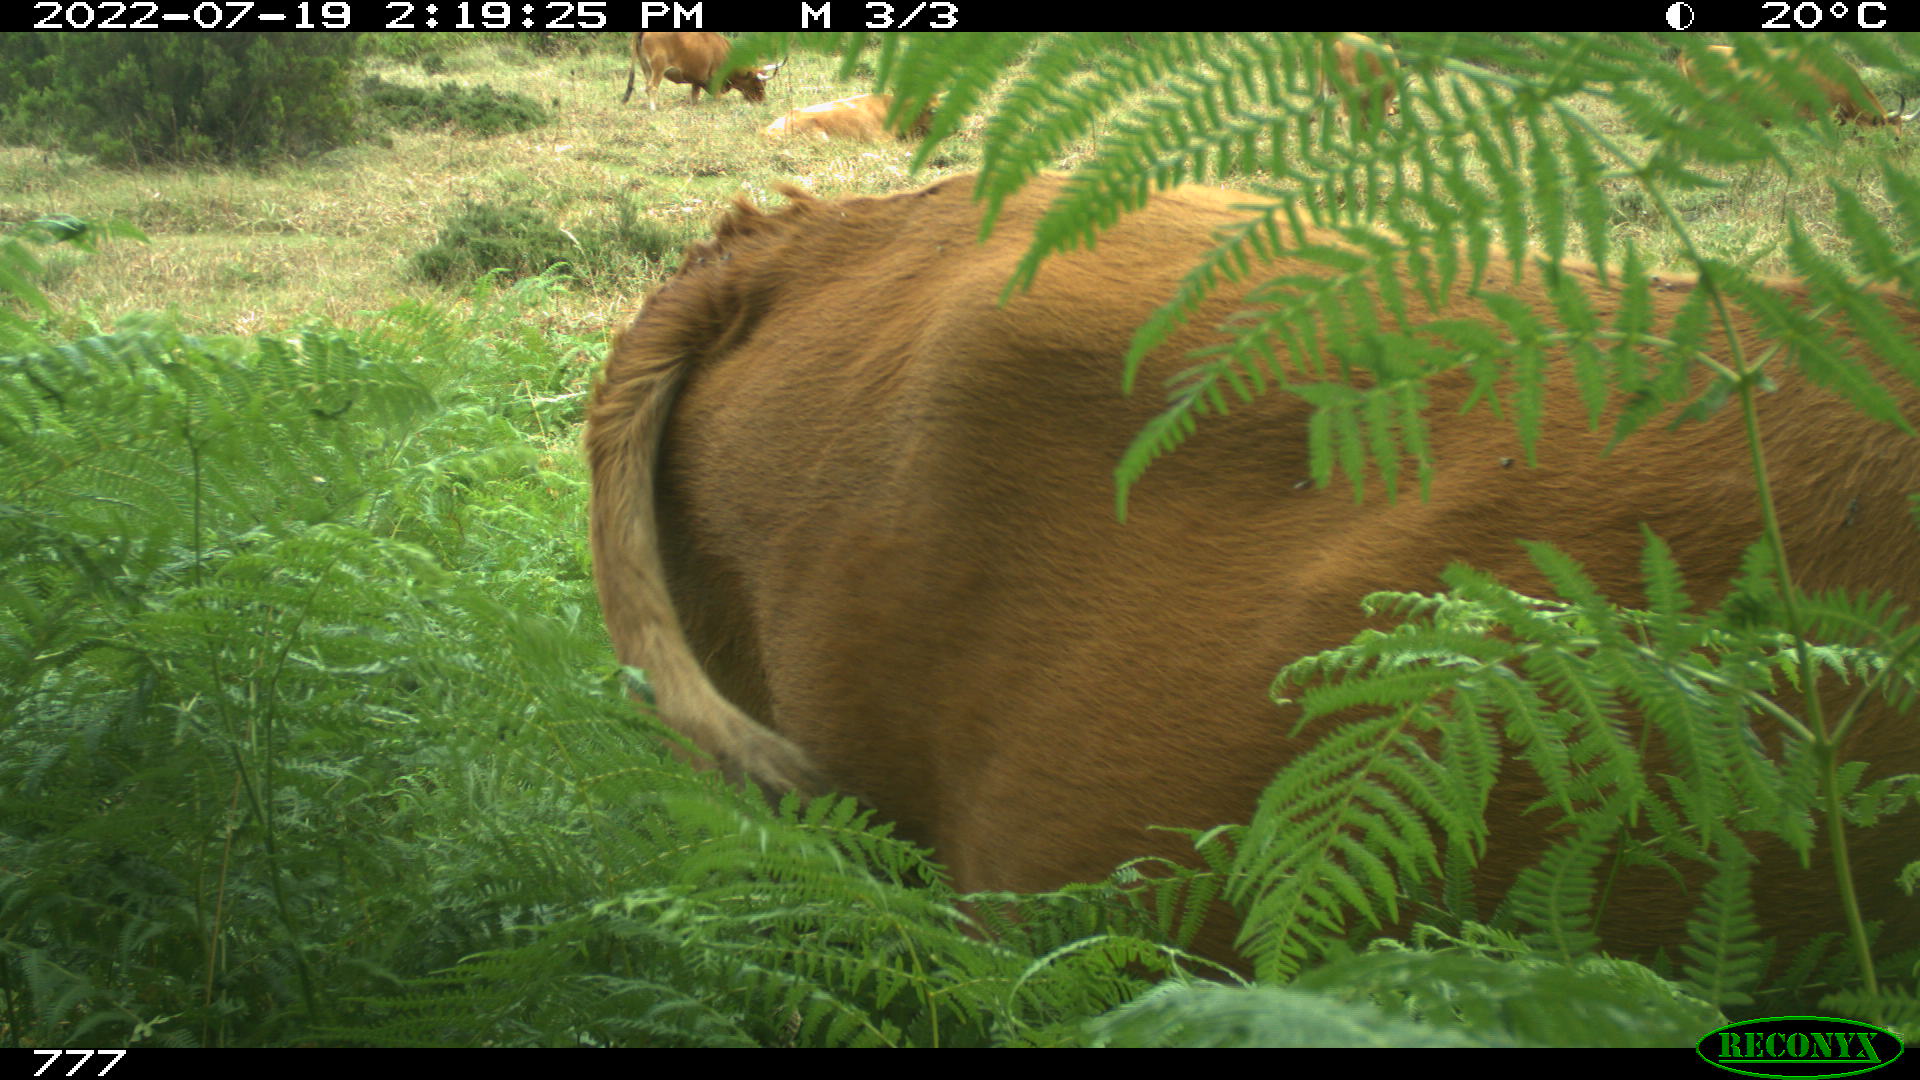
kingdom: Animalia
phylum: Chordata
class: Mammalia
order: Artiodactyla
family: Bovidae
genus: Bos
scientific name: Bos taurus
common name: Domesticated cattle
